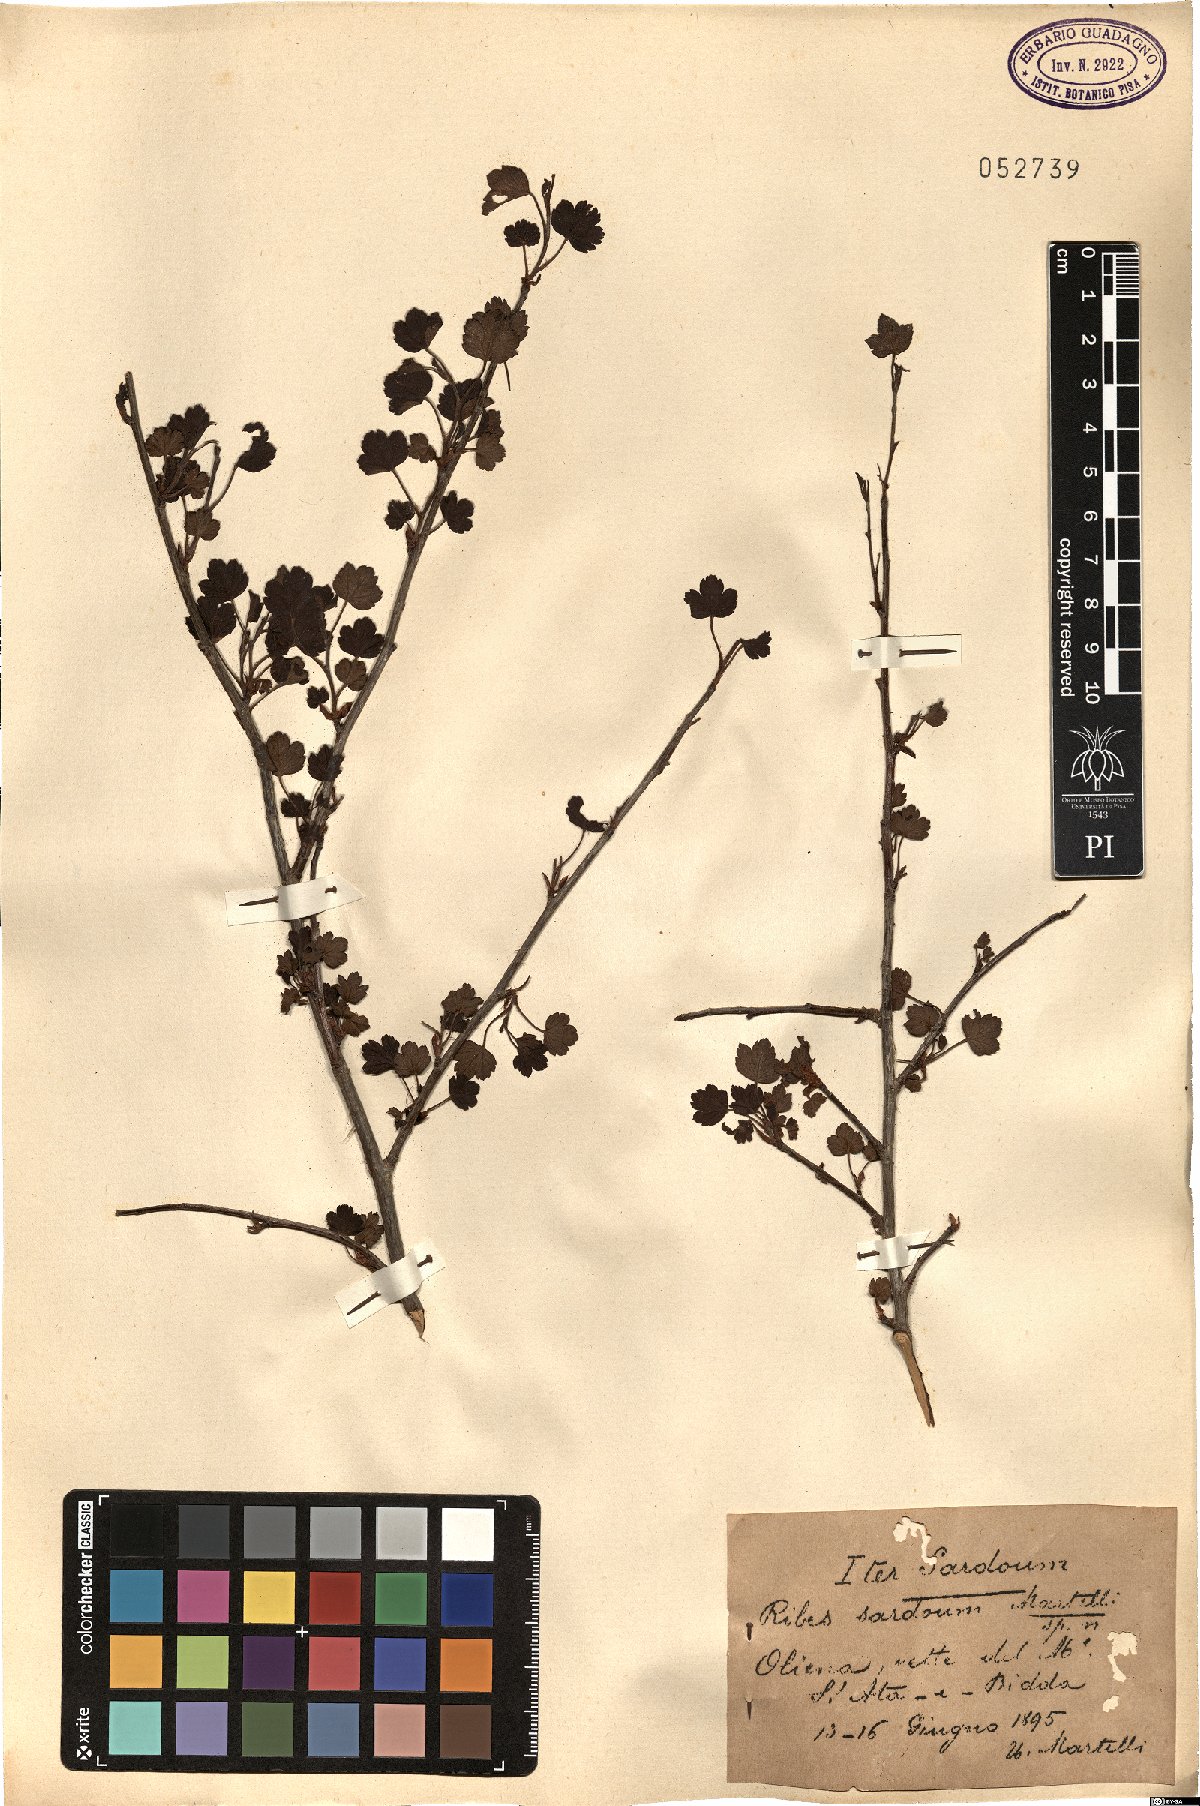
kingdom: Plantae
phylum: Tracheophyta
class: Magnoliopsida
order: Saxifragales
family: Grossulariaceae
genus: Ribes
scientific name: Ribes sardoum
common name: Sardinian currant
